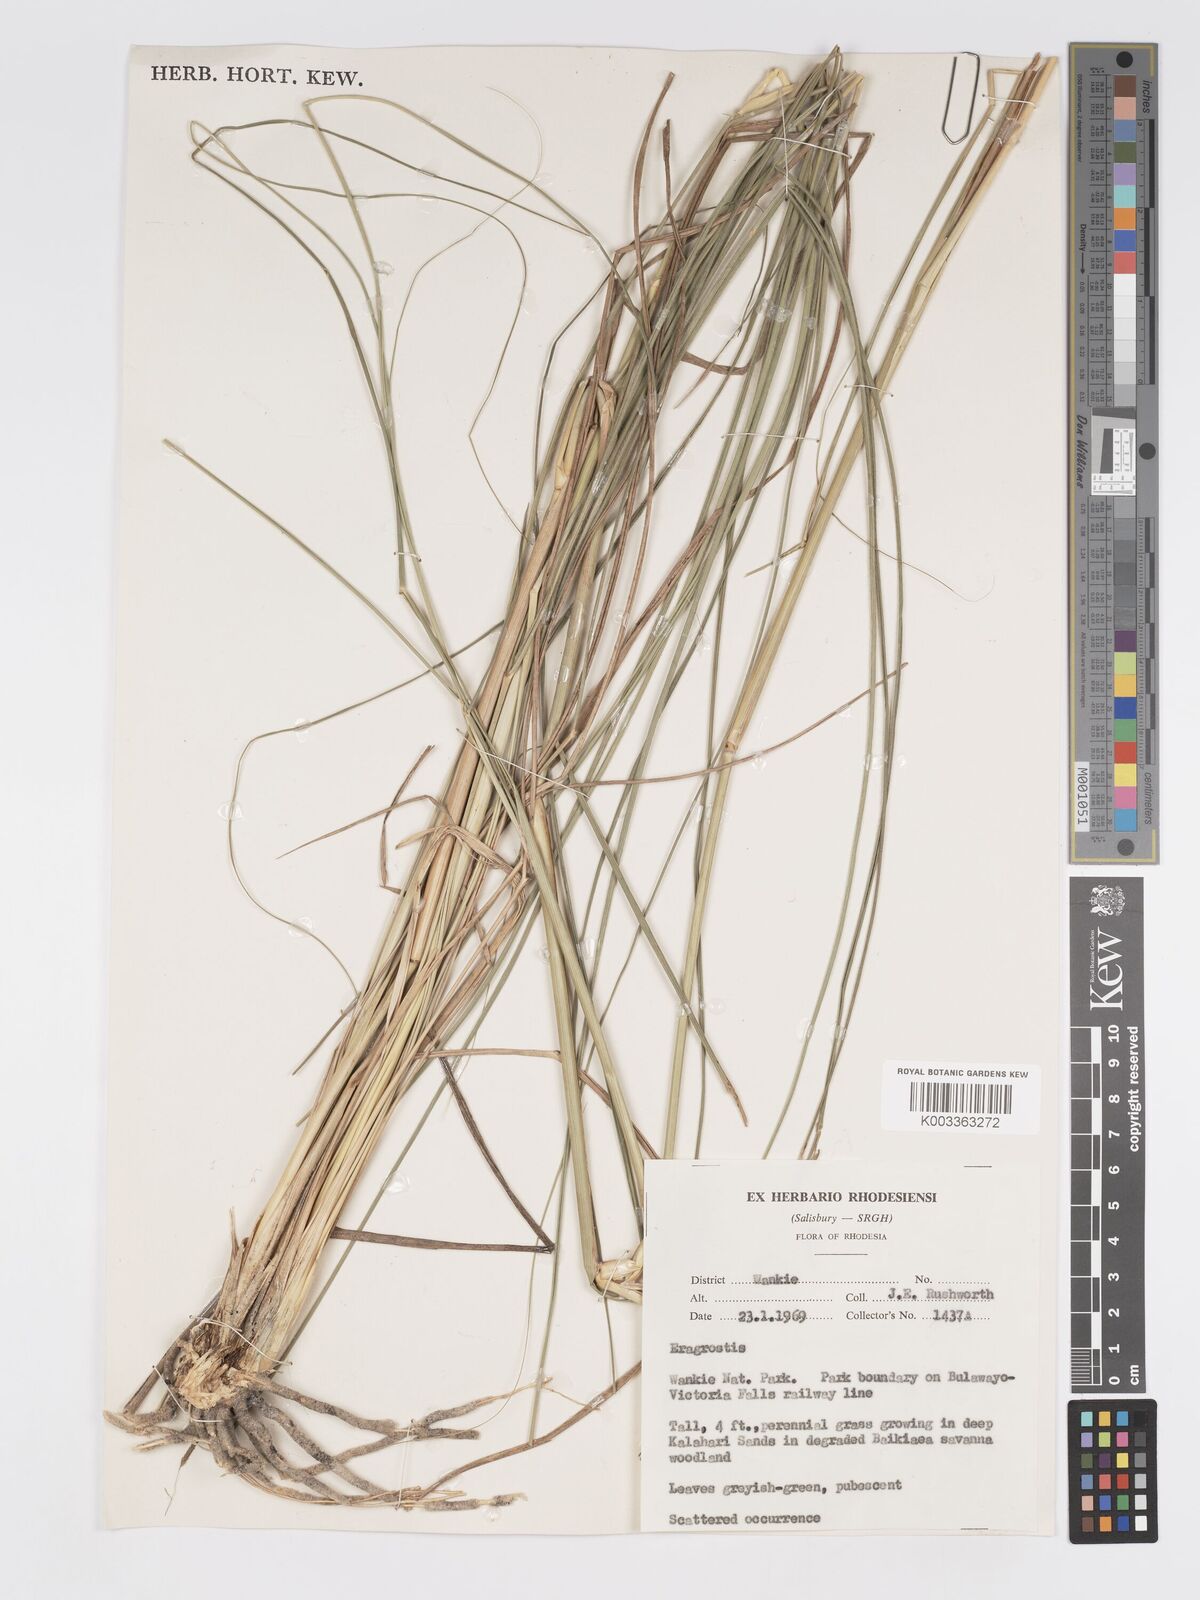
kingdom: Plantae
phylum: Tracheophyta
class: Liliopsida
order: Poales
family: Poaceae
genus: Eragrostis
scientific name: Eragrostis curvula
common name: African love-grass
